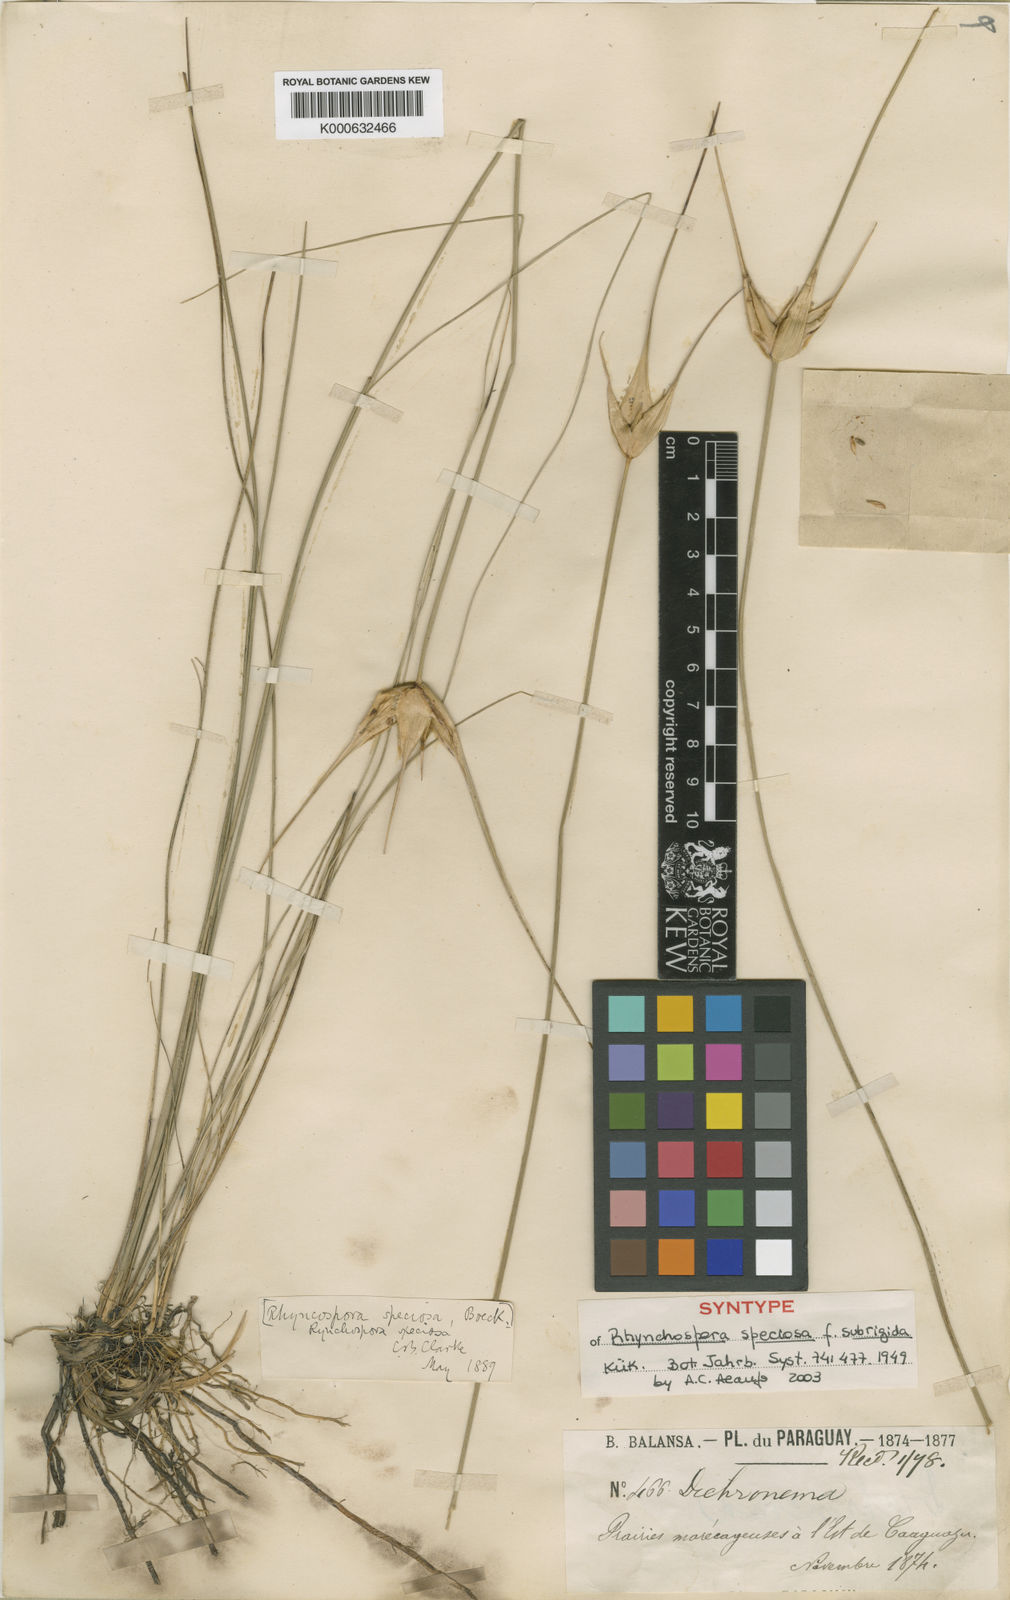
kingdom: Plantae
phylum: Tracheophyta
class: Liliopsida
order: Poales
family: Cyperaceae
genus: Rhynchospora
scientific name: Rhynchospora speciosa
